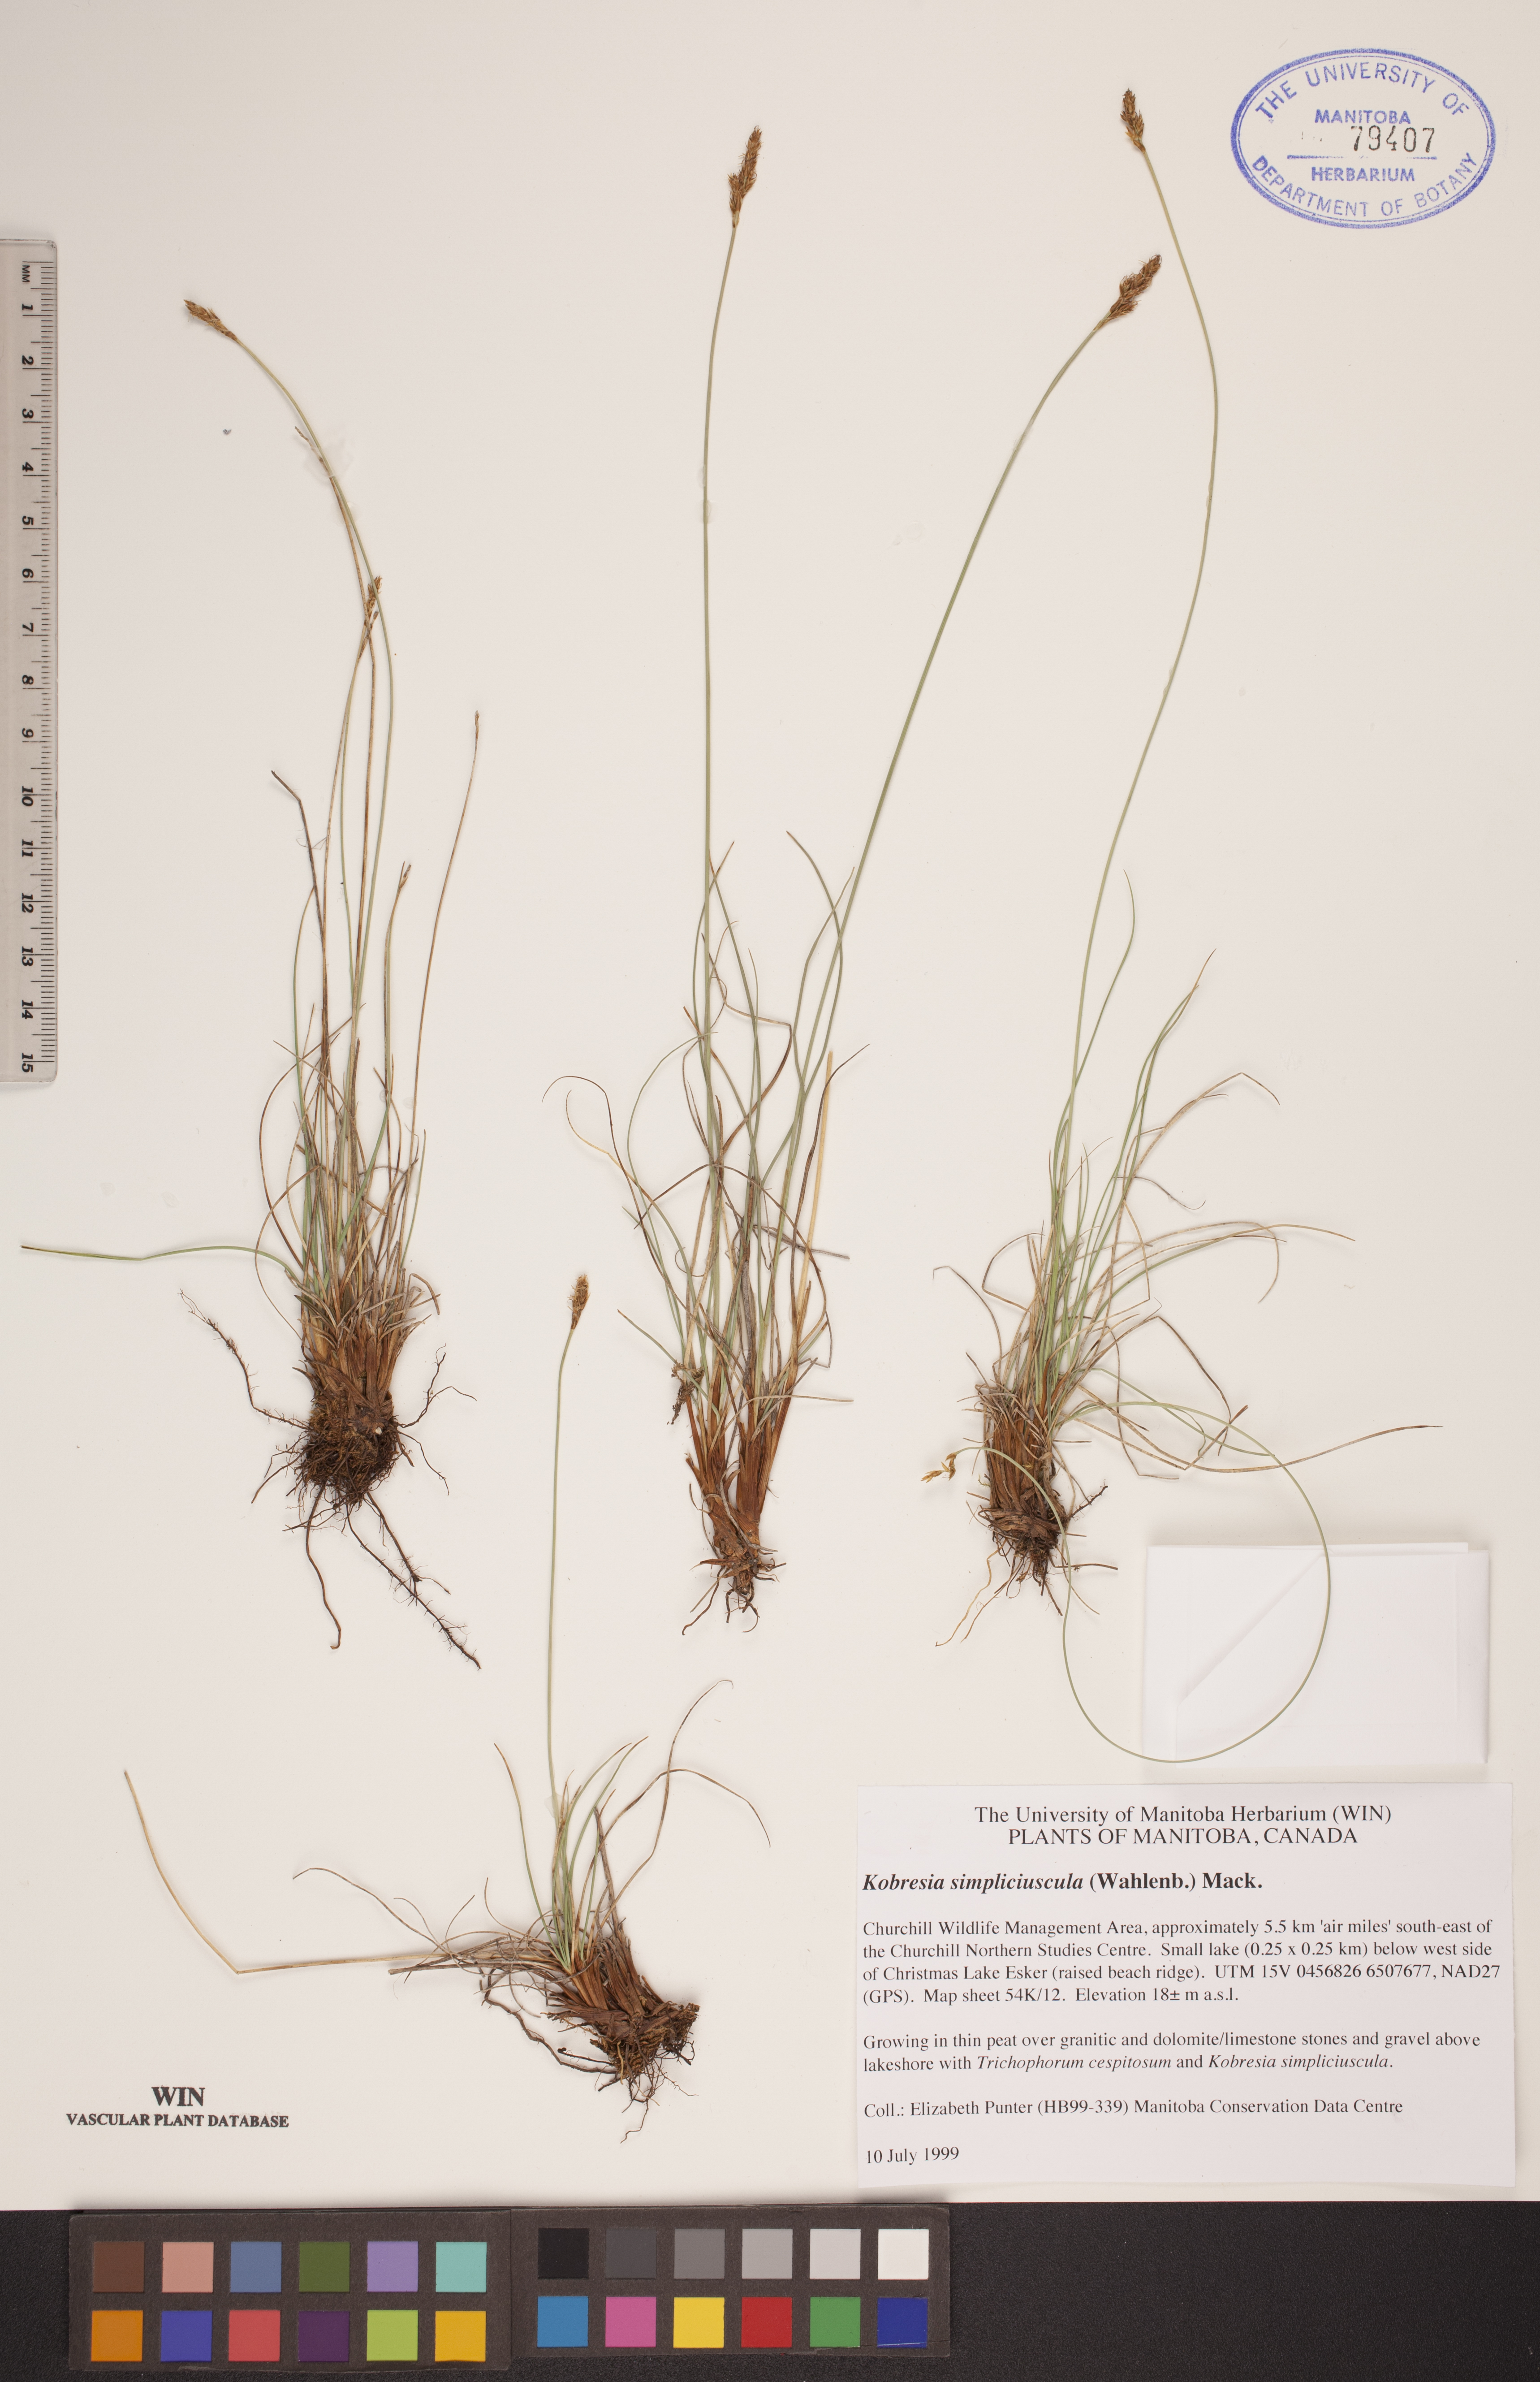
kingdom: Plantae
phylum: Tracheophyta
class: Liliopsida
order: Poales
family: Cyperaceae
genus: Carex
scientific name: Carex simpliciuscula
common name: Simple bog sedge
